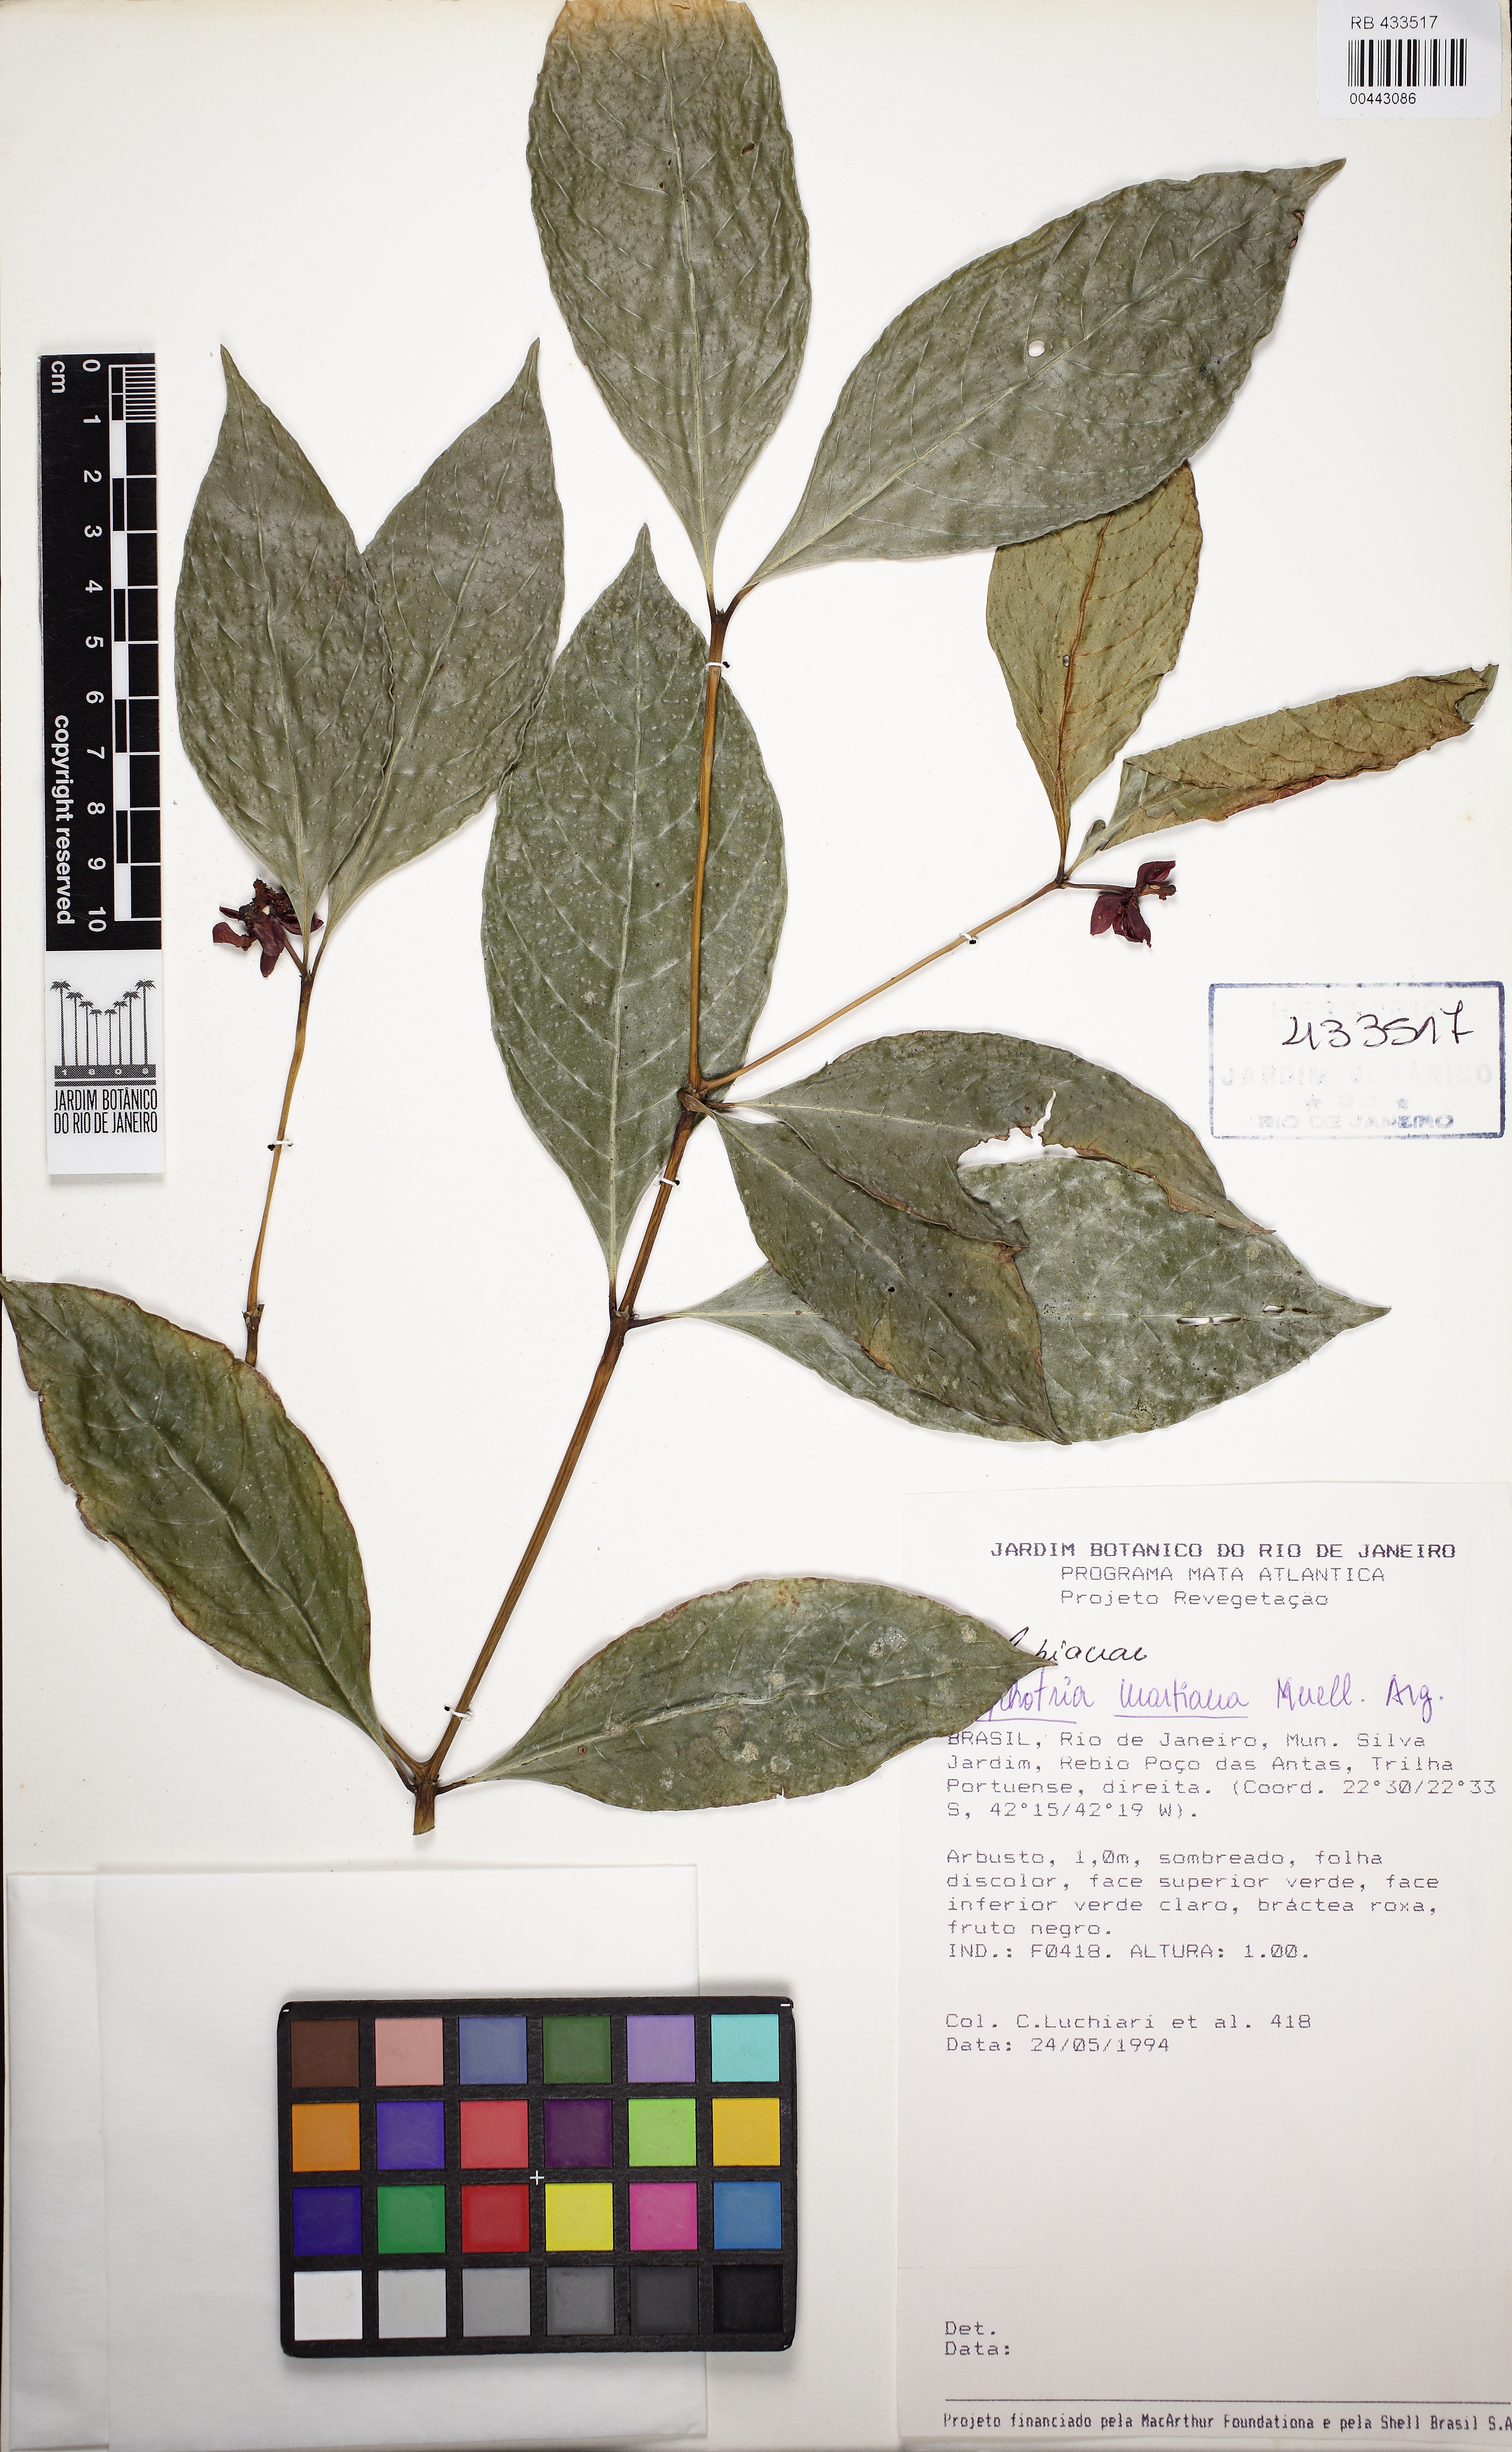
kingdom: Plantae
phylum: Tracheophyta
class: Magnoliopsida
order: Gentianales
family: Rubiaceae
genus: Palicourea
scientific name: Palicourea dichotoma
